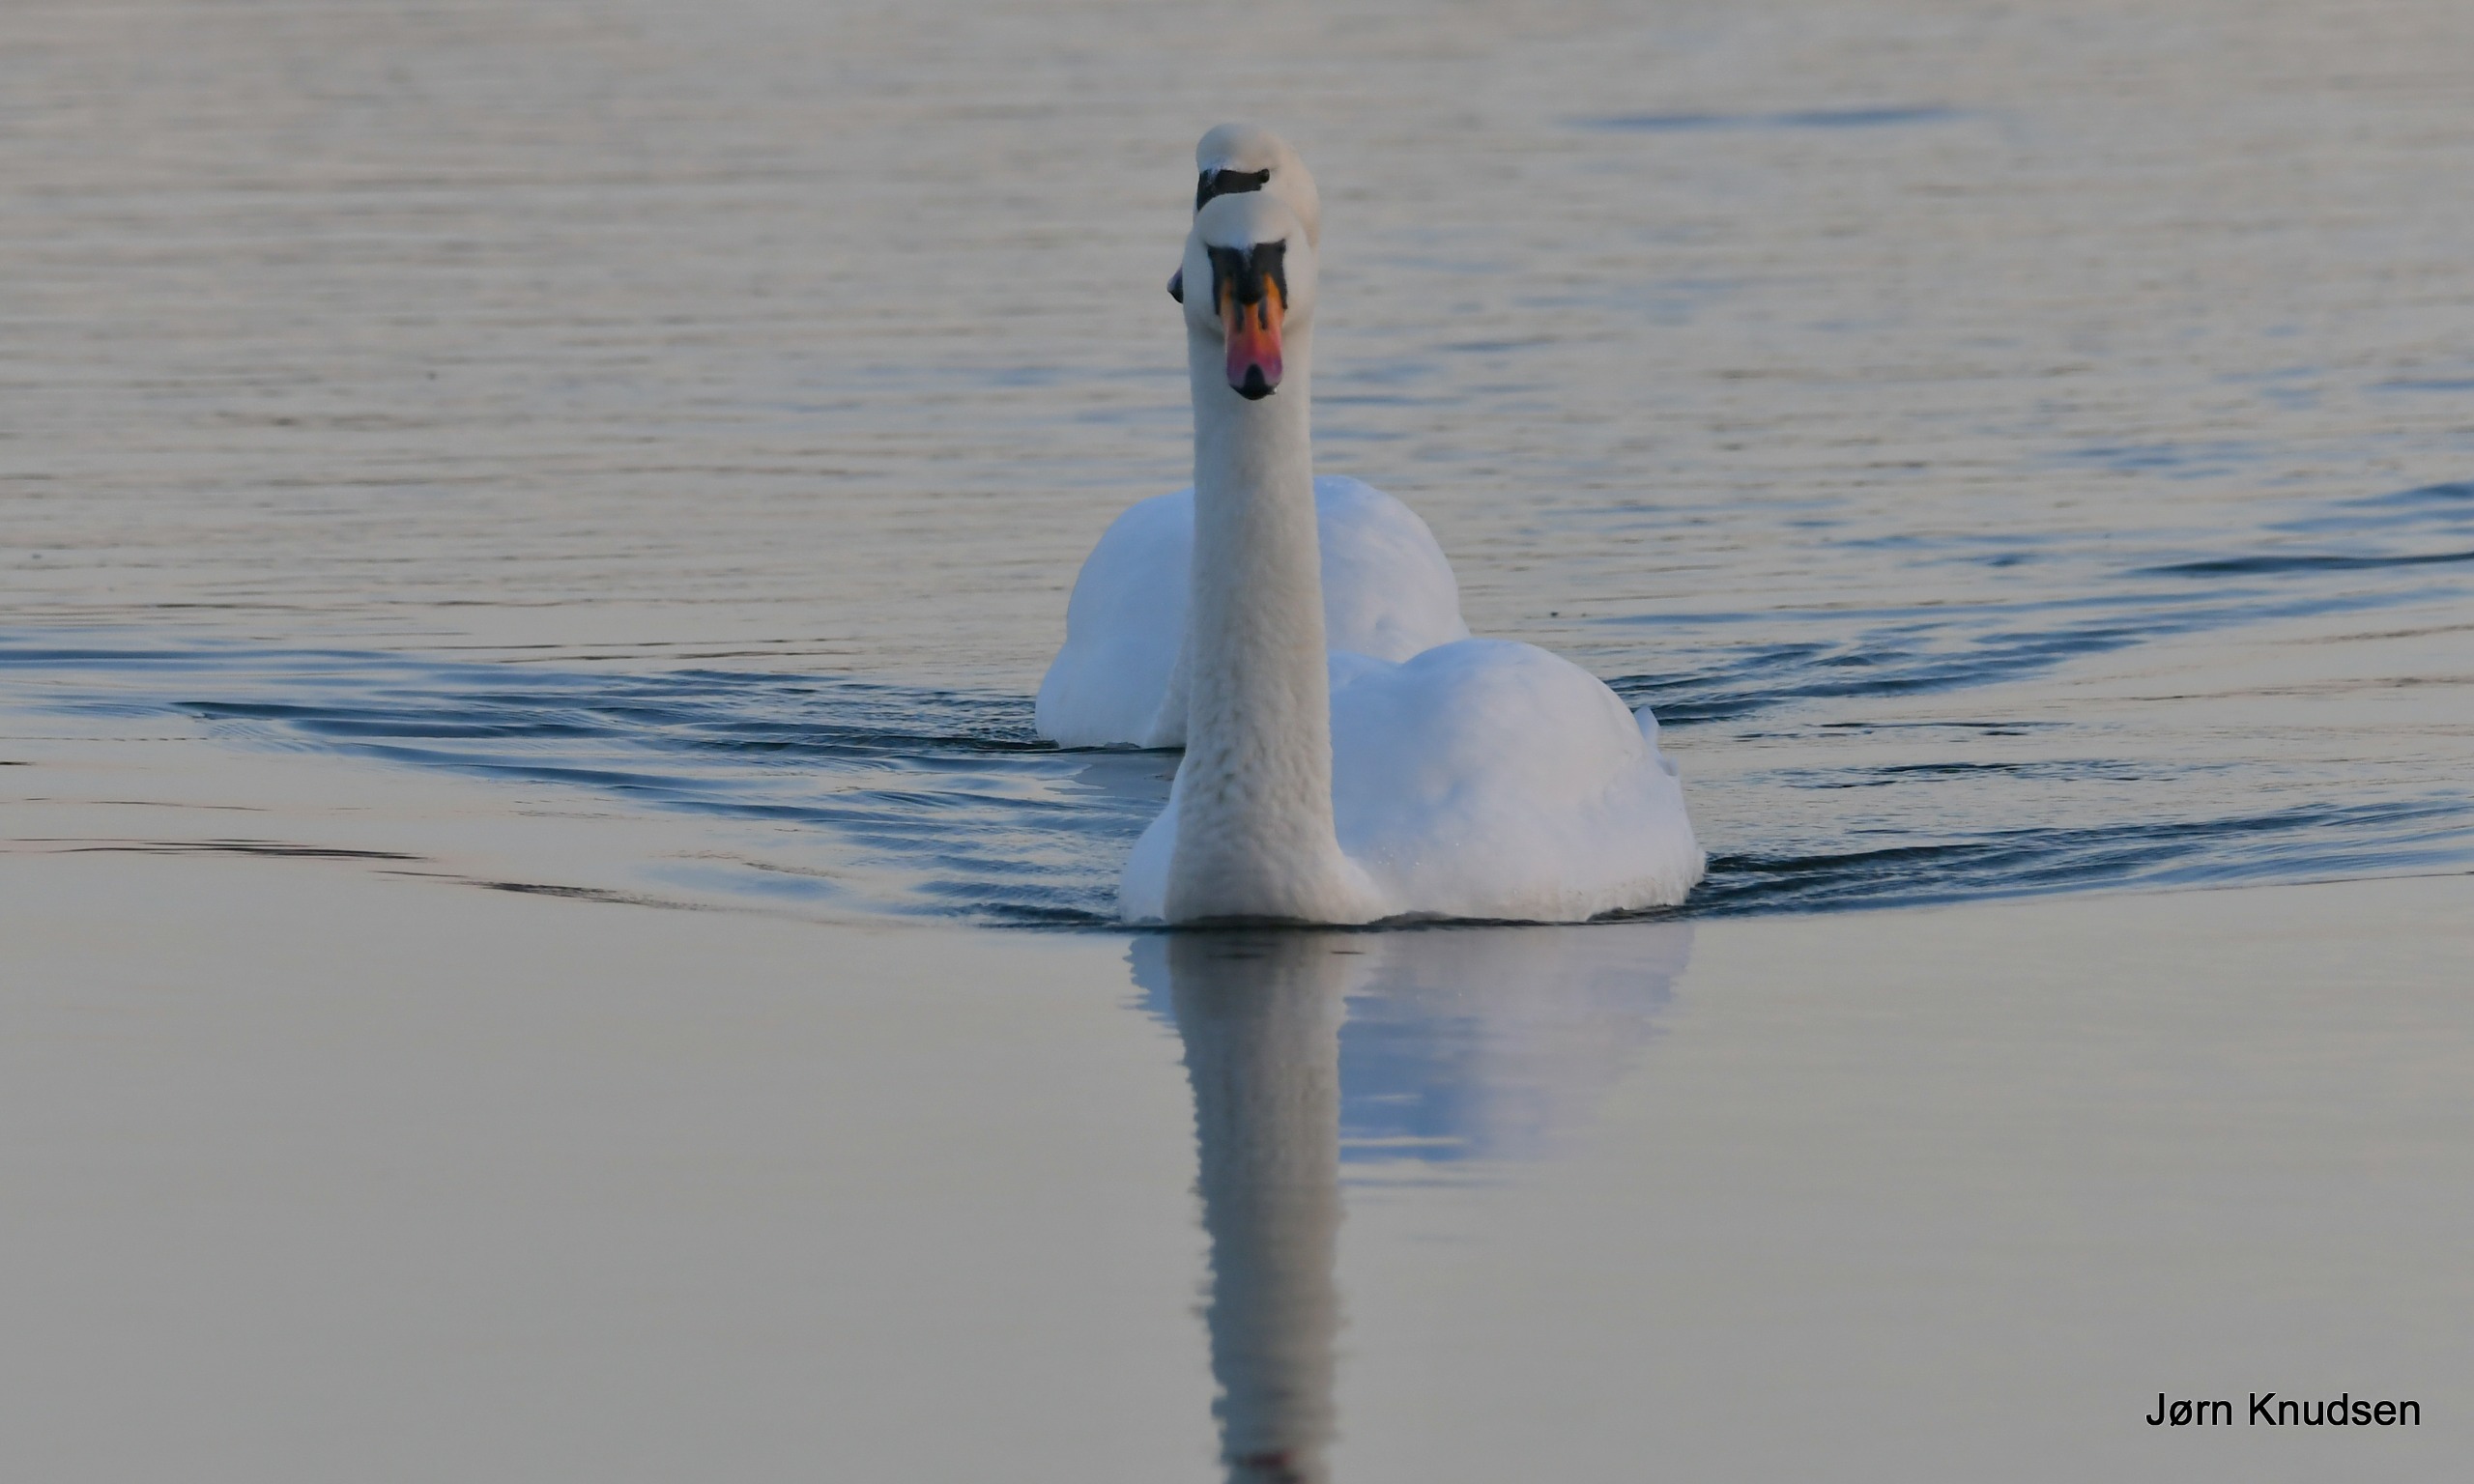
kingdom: Animalia
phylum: Chordata
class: Aves
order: Anseriformes
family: Anatidae
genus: Cygnus
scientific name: Cygnus olor
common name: Knopsvane
